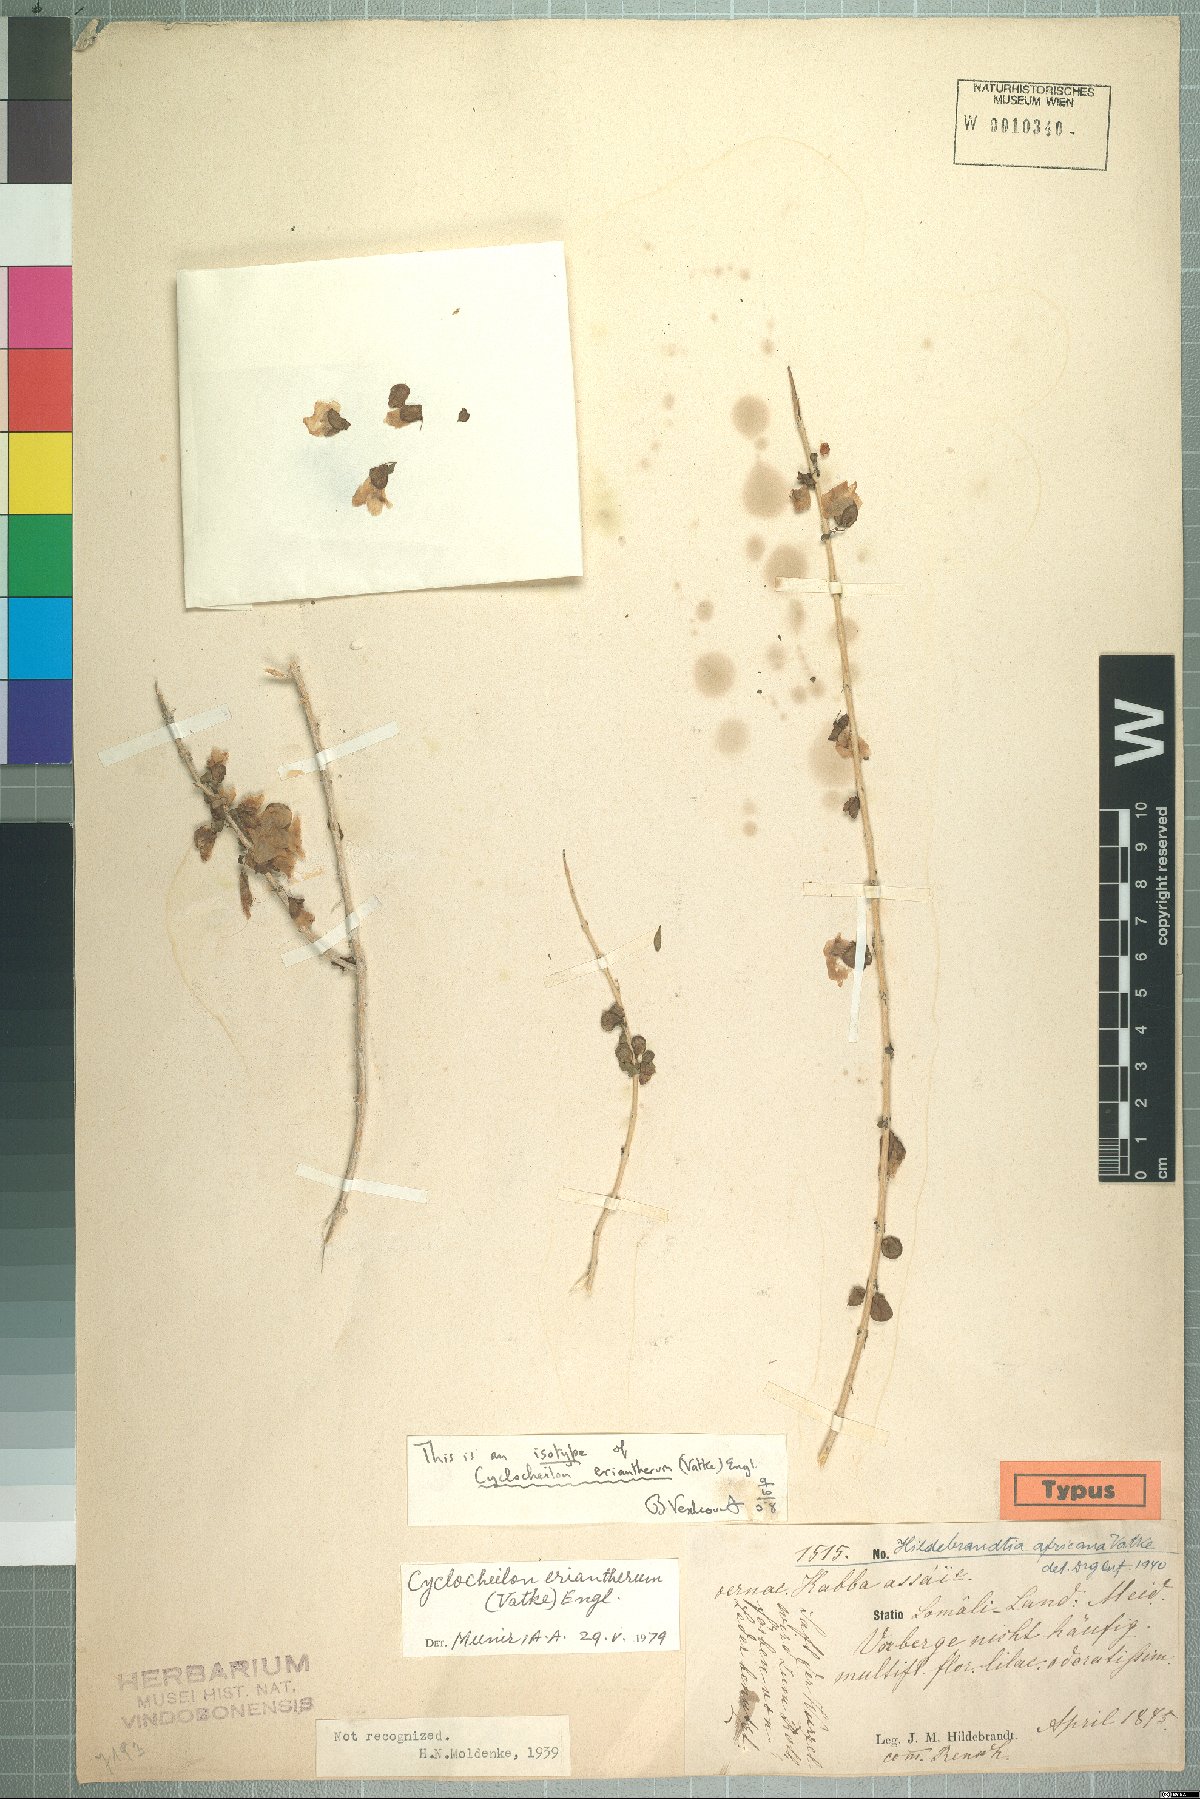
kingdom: Plantae
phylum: Tracheophyta
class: Magnoliopsida
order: Lamiales
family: Orobanchaceae
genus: Asepalum
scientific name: Asepalum eriantherum
